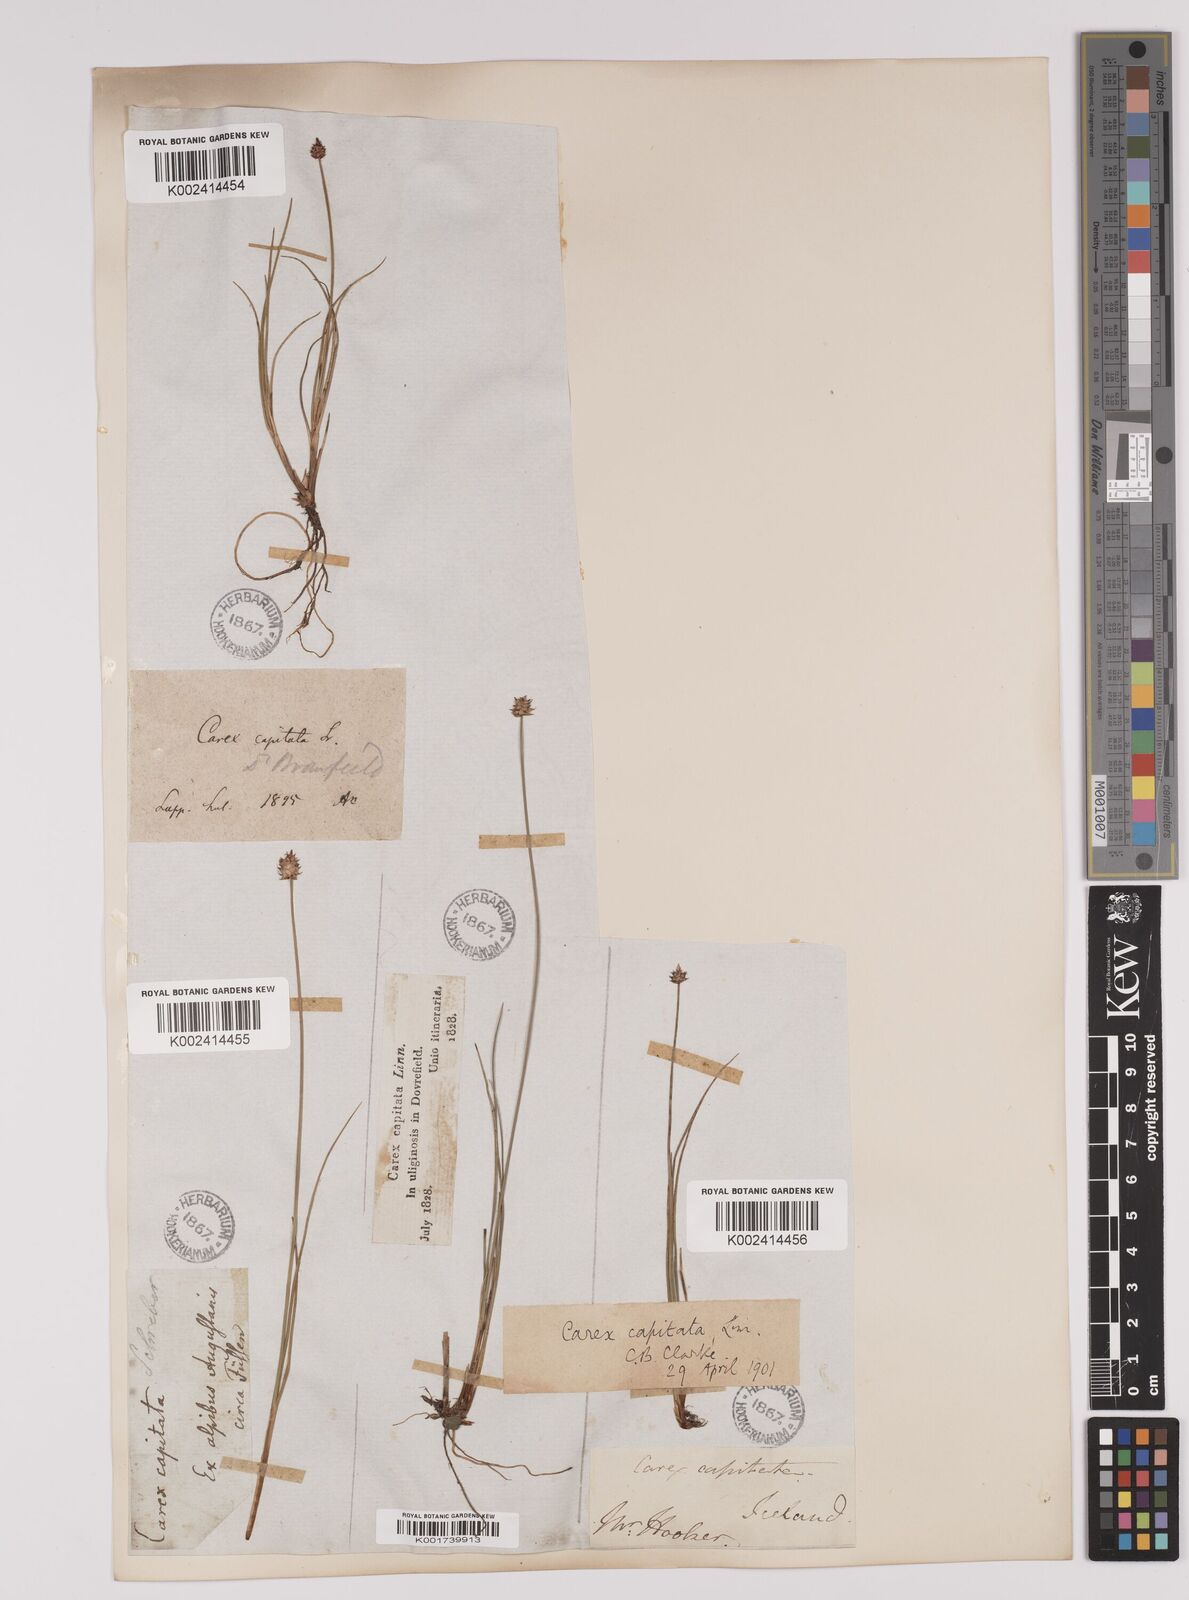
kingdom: Plantae
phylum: Tracheophyta
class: Liliopsida
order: Poales
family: Cyperaceae
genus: Carex
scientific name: Carex capitata
